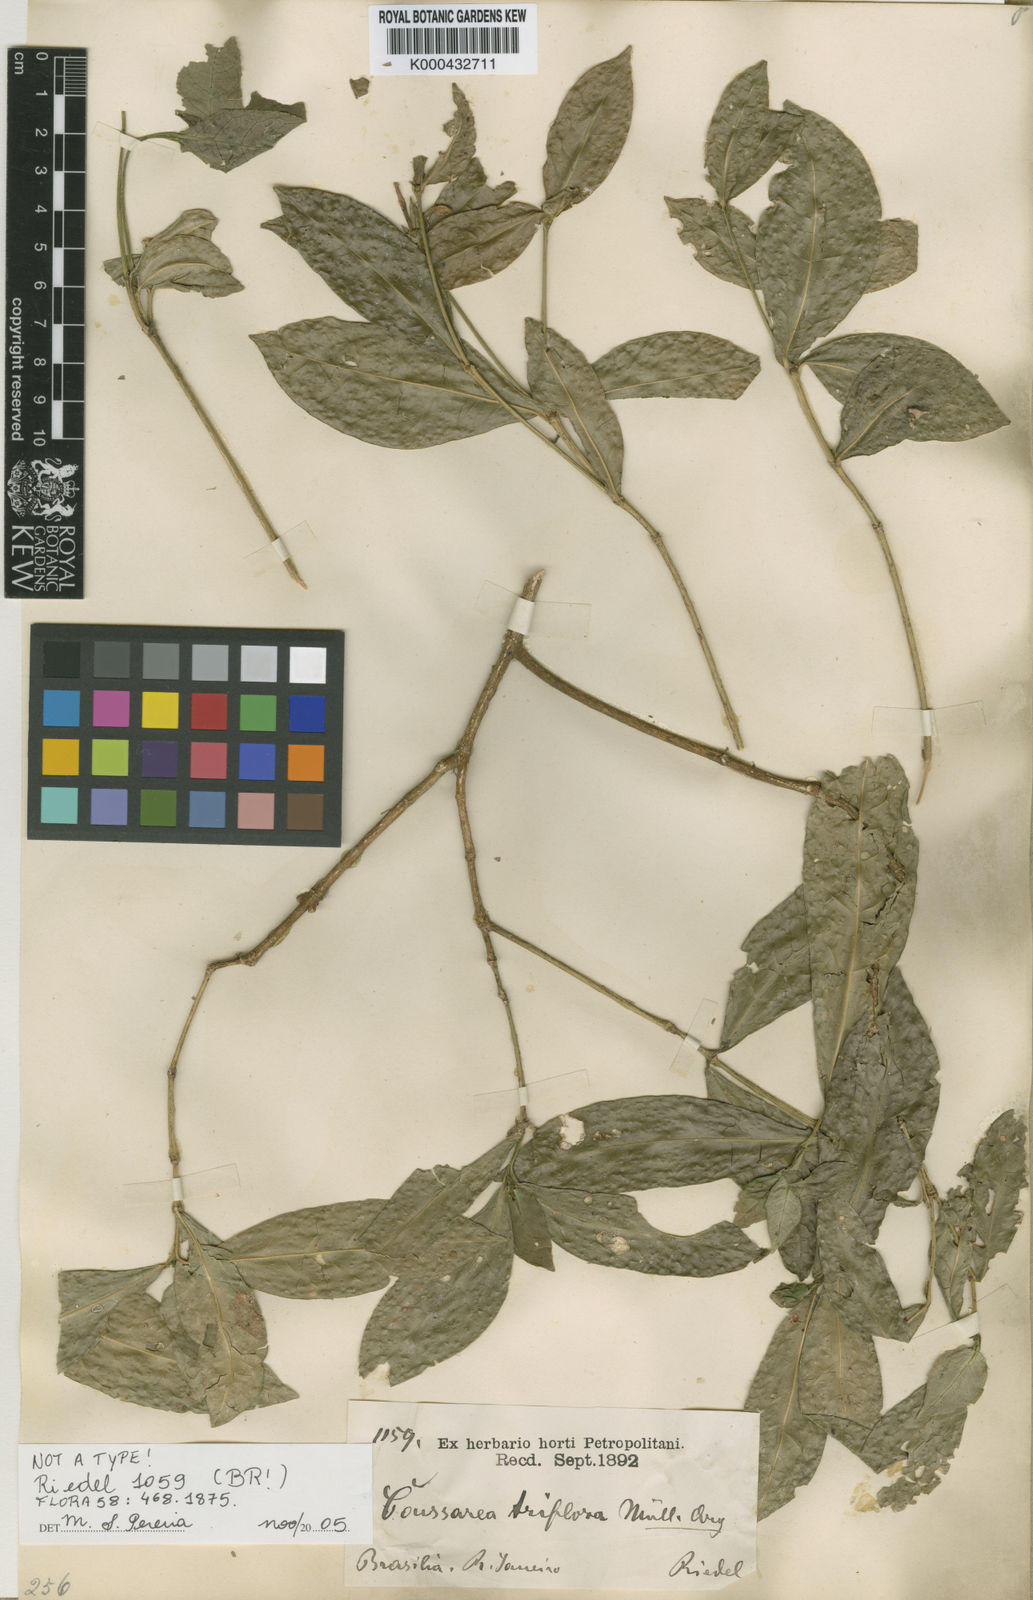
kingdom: Plantae
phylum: Tracheophyta
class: Magnoliopsida
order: Gentianales
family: Rubiaceae
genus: Coussarea
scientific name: Coussarea
